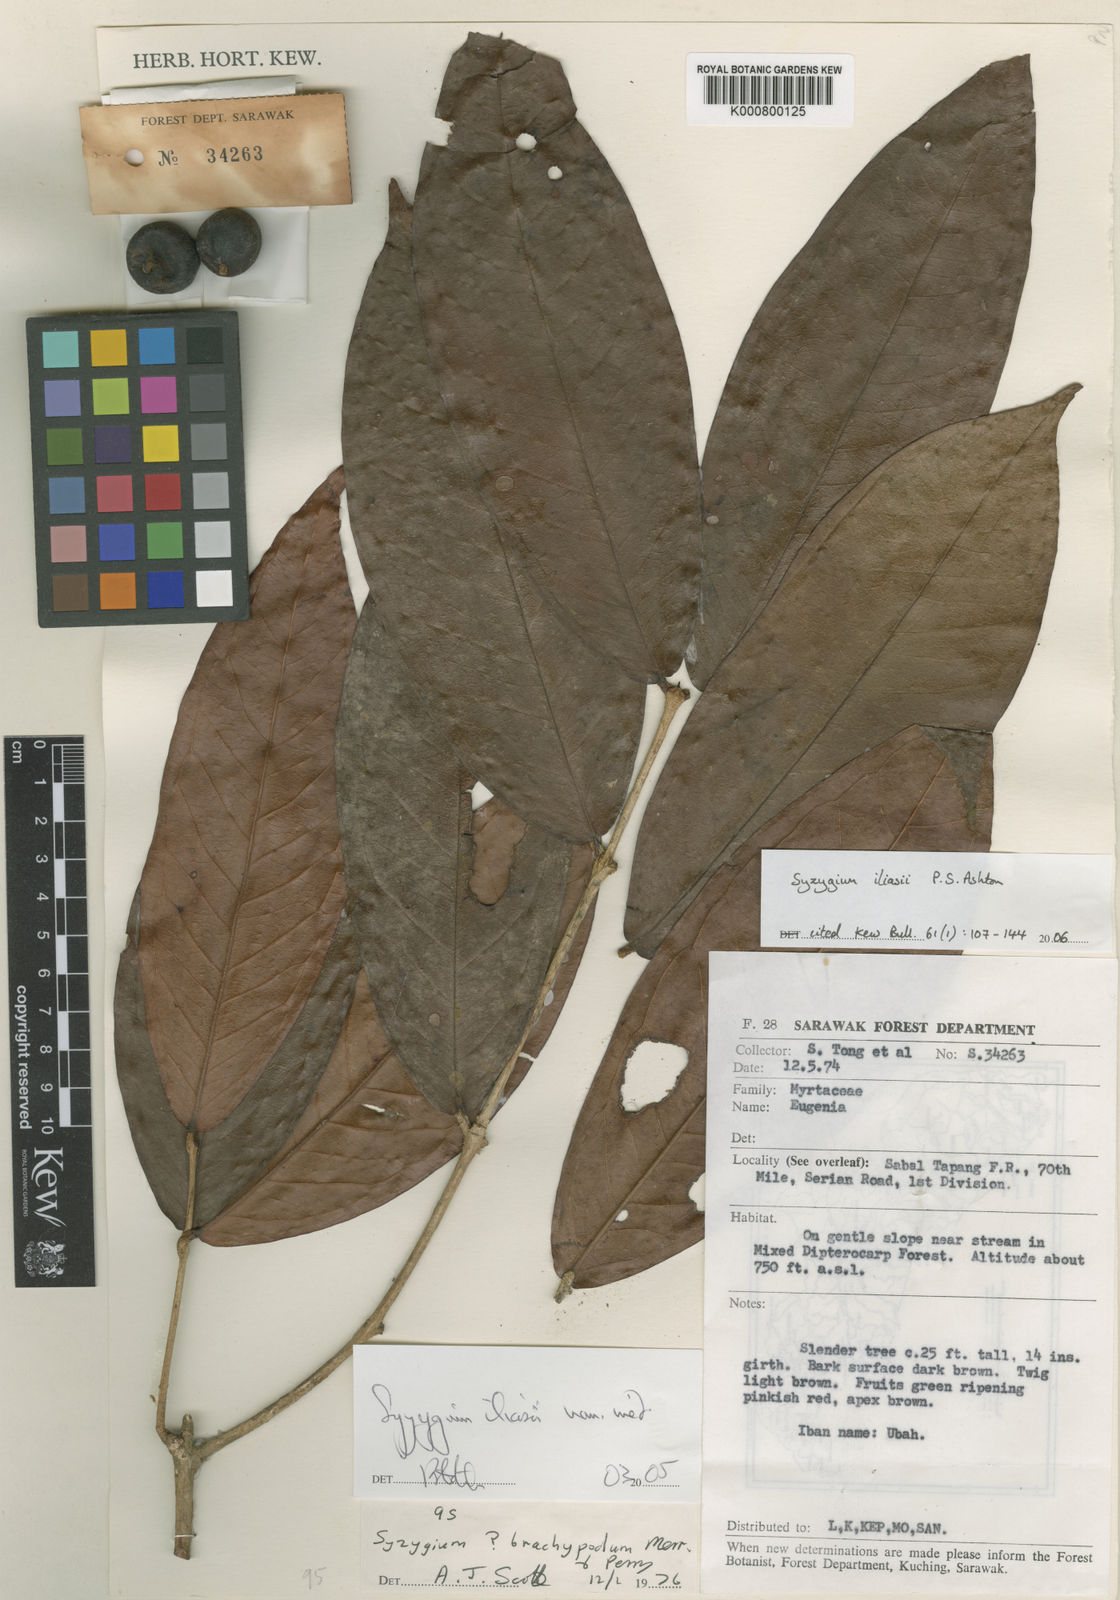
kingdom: Plantae
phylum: Tracheophyta
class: Magnoliopsida
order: Myrtales
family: Myrtaceae
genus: Syzygium
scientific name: Syzygium iliasii
